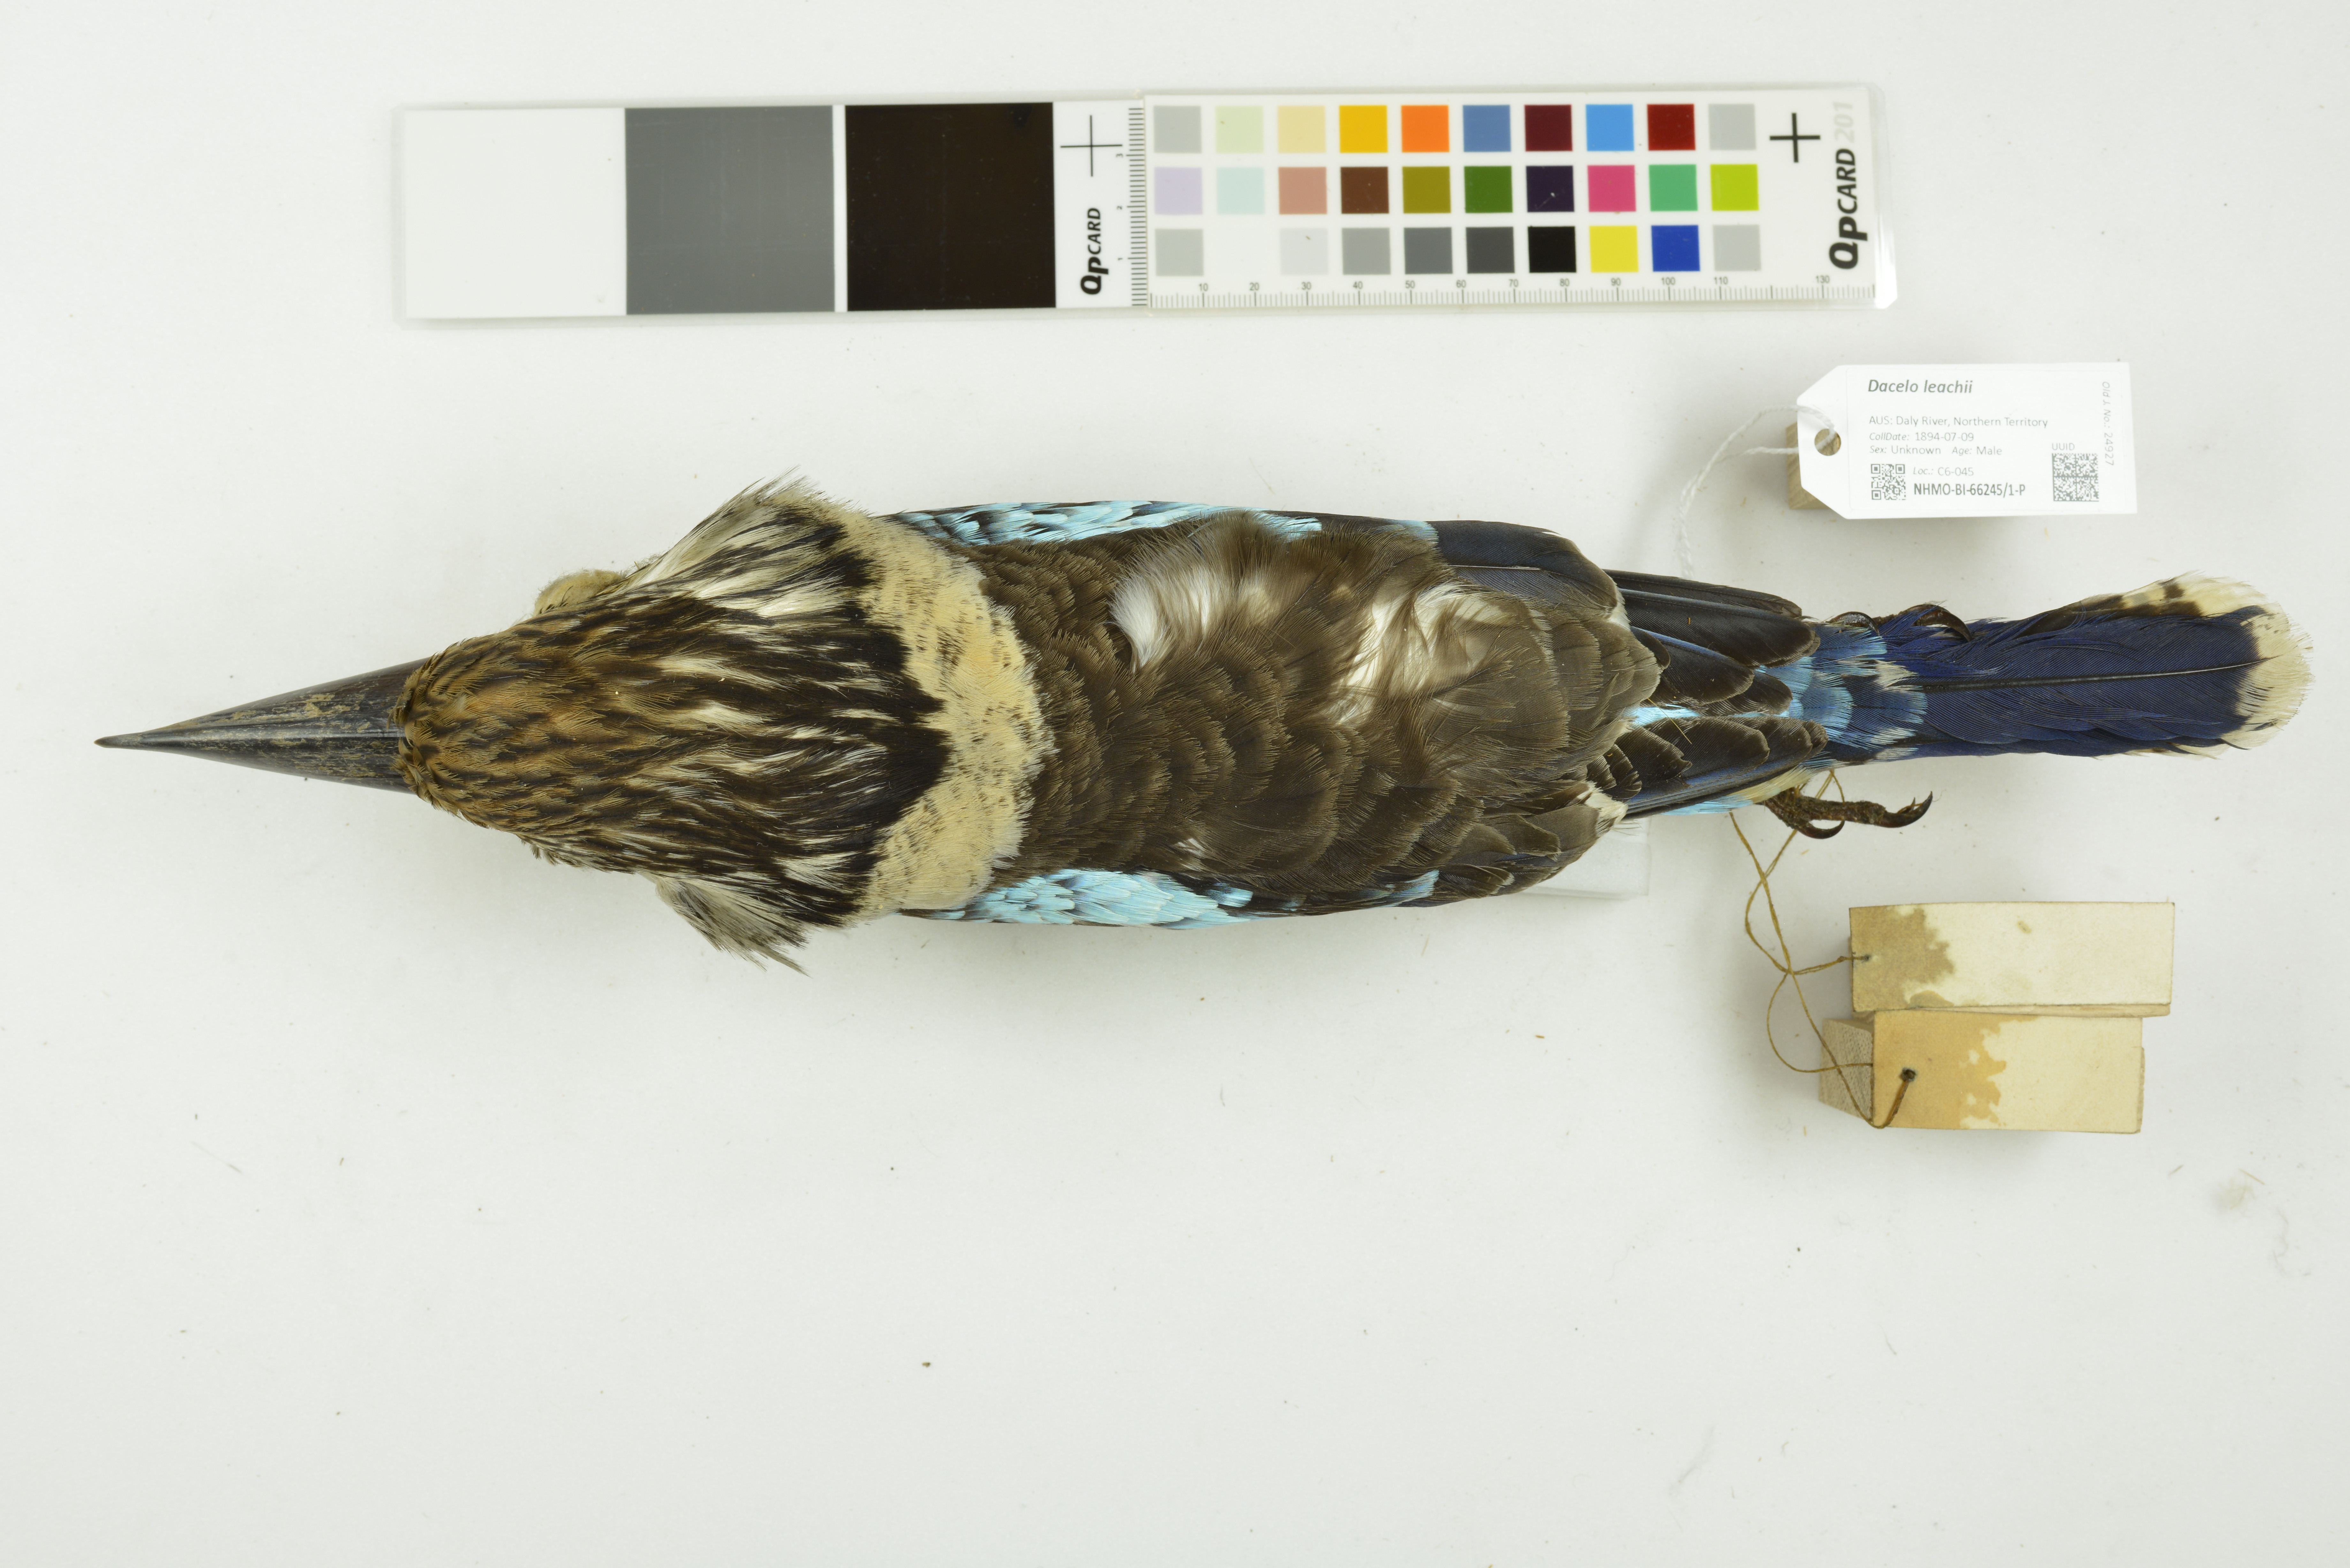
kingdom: Animalia
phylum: Chordata
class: Aves
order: Coraciiformes
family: Alcedinidae
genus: Dacelo
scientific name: Dacelo leachii
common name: Blue-winged kookaburra
